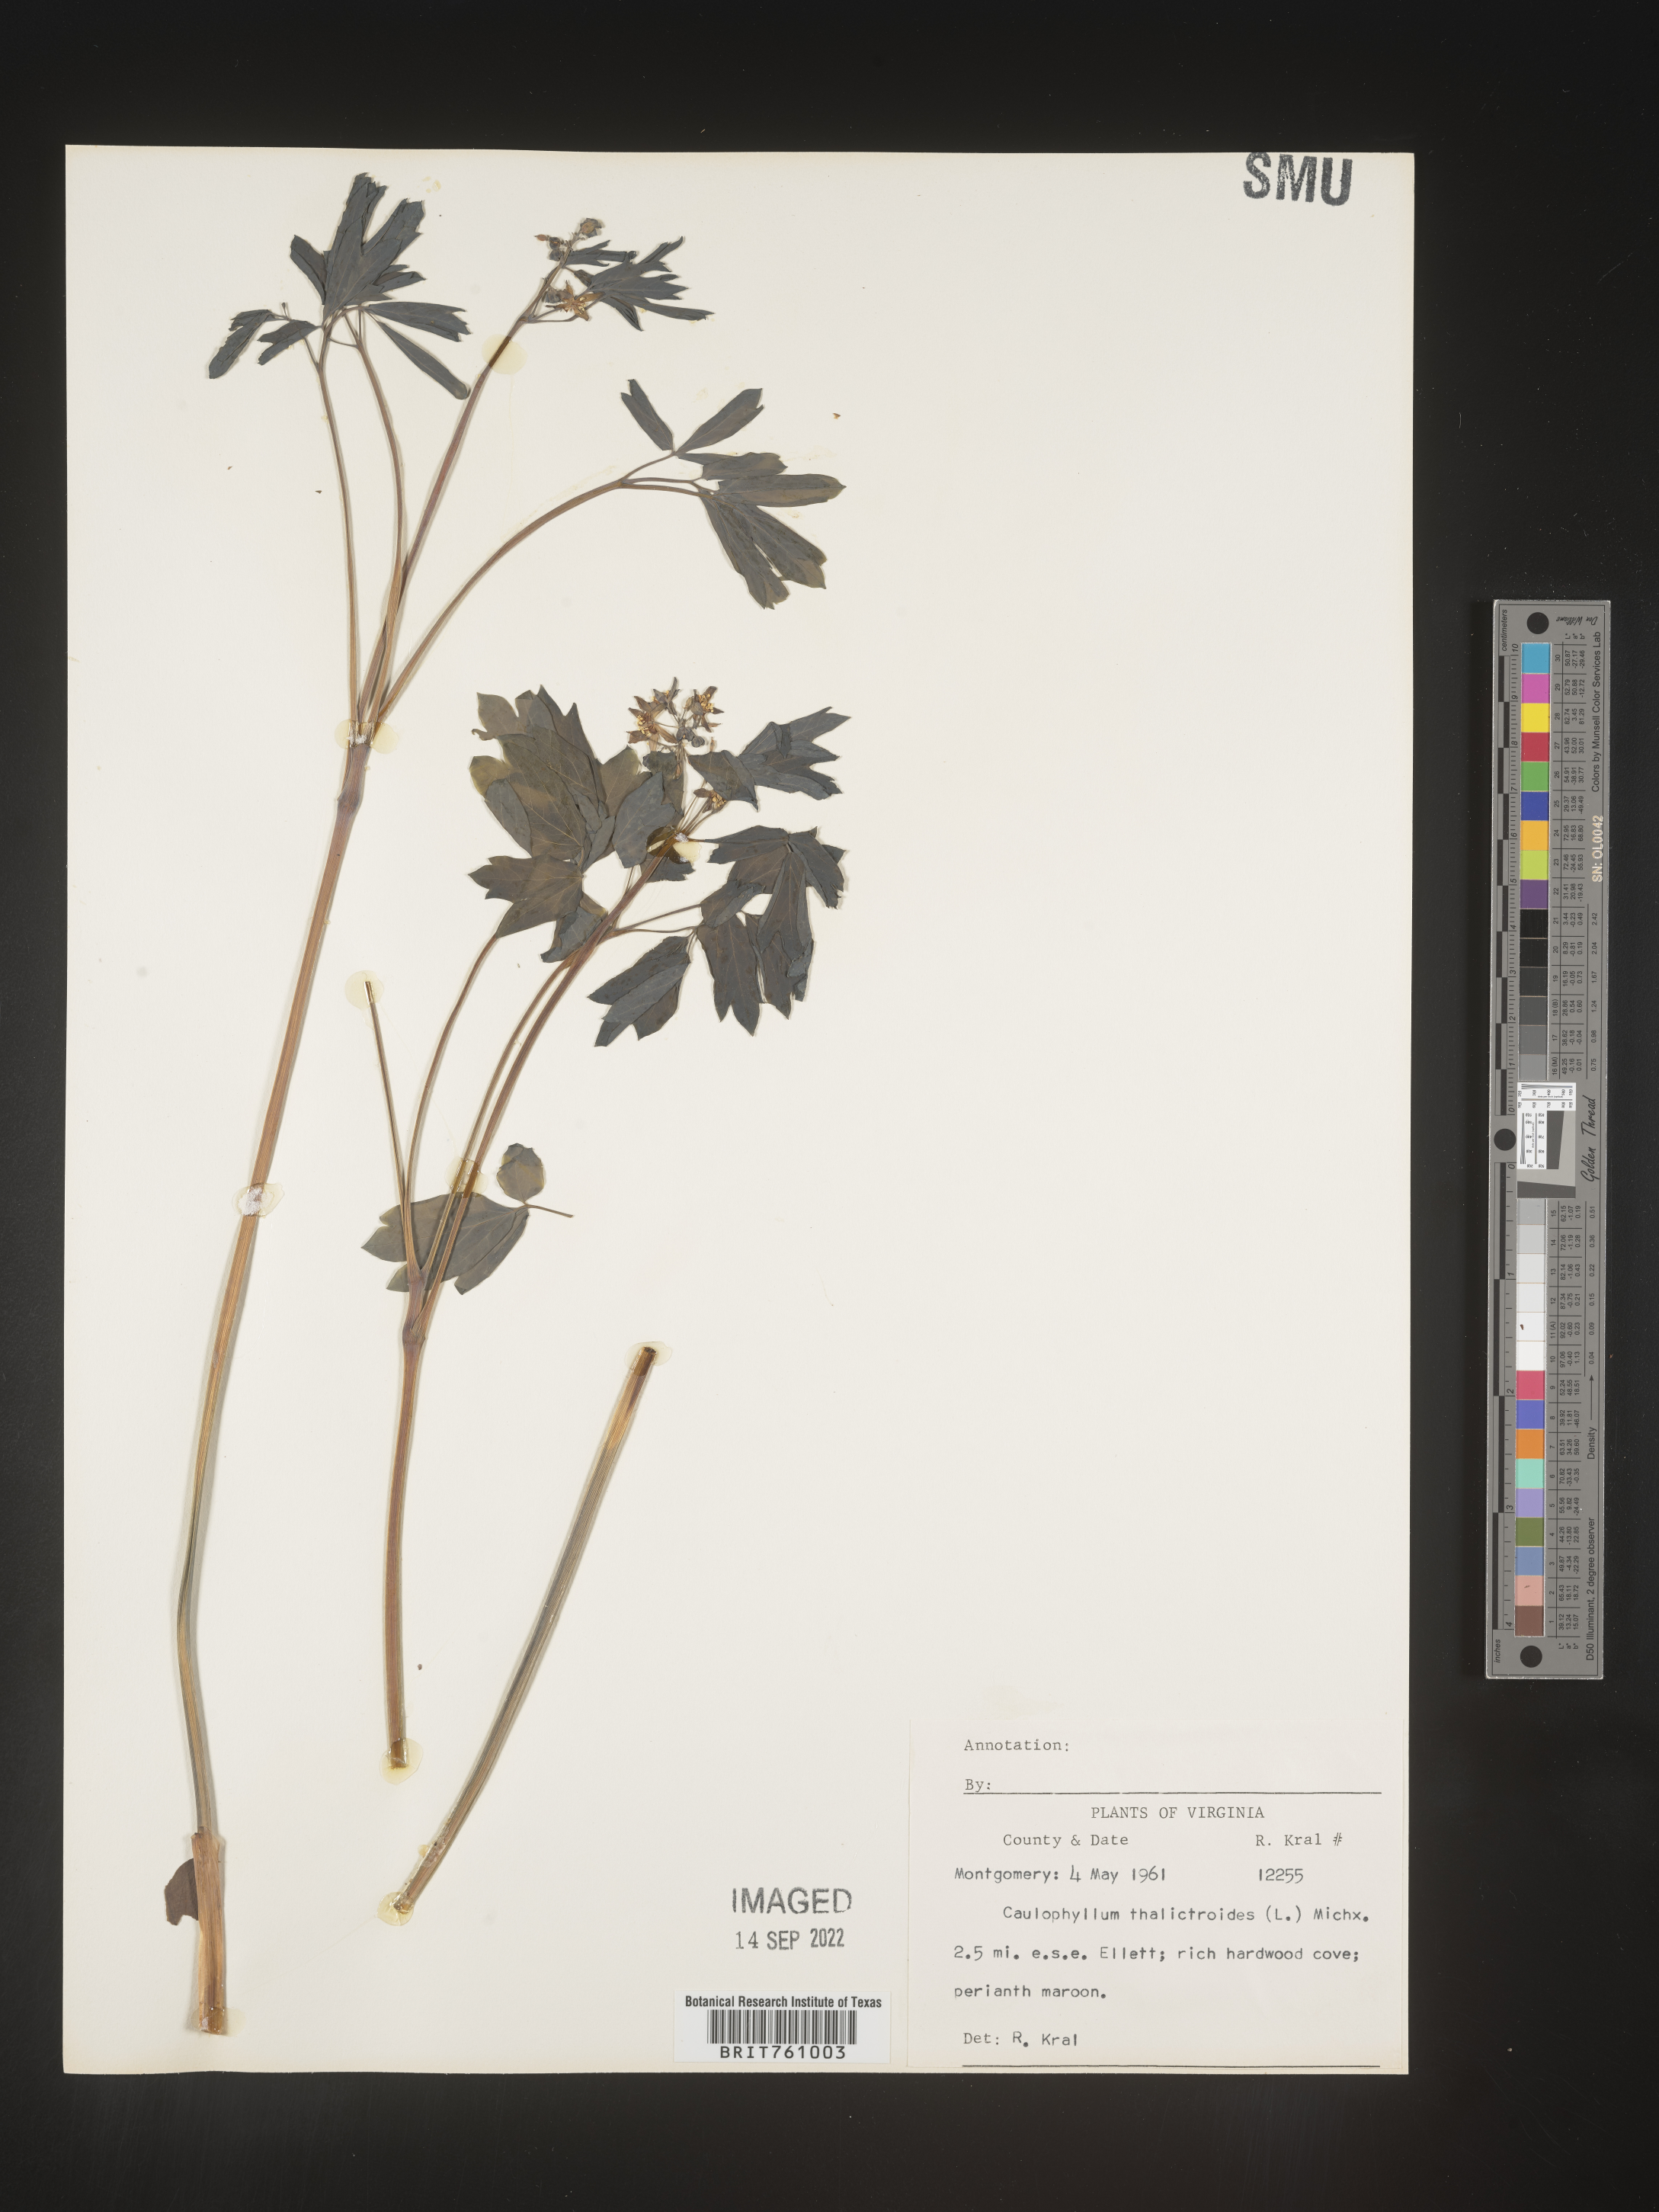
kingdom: Plantae
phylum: Tracheophyta
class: Magnoliopsida
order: Ranunculales
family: Berberidaceae
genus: Caulophyllum
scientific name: Caulophyllum thalictroides
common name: Blue cohosh
